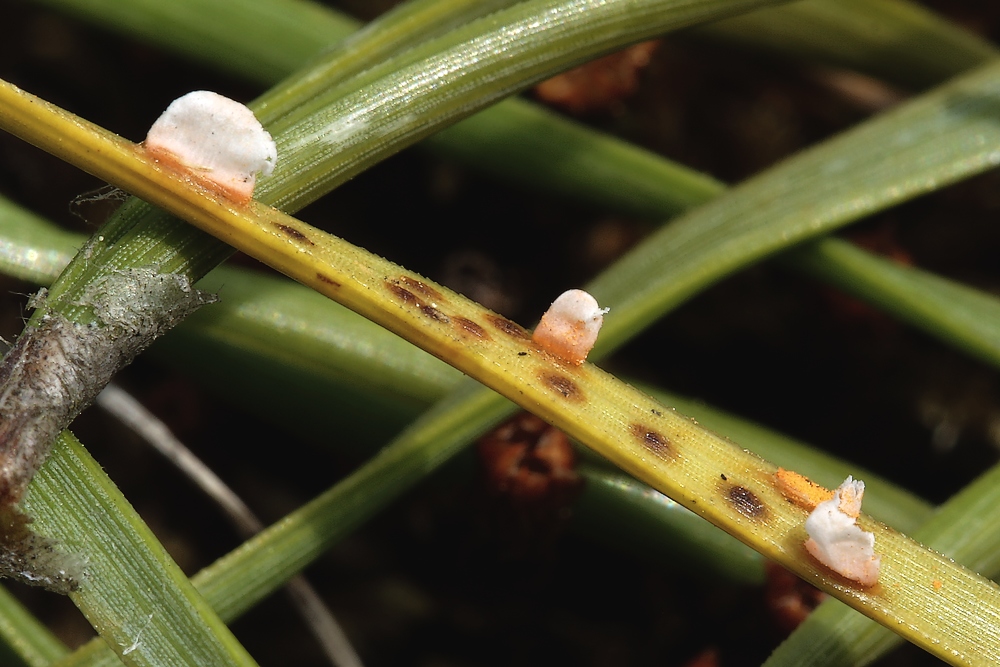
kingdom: Fungi
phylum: Basidiomycota
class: Pucciniomycetes
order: Pucciniales
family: Coleosporiaceae
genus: Coleosporium
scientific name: Coleosporium tussilaginis
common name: almindelig fyrrenålerust
